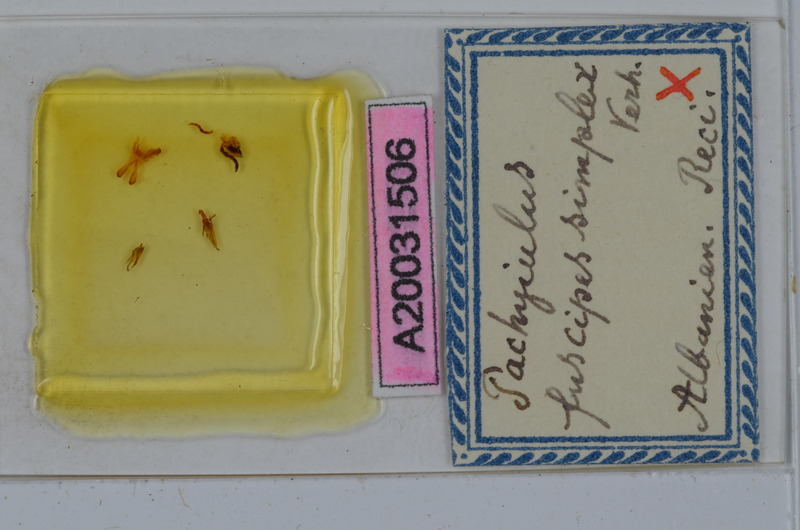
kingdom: Animalia
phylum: Arthropoda
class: Diplopoda
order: Julida
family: Julidae
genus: Acanthoiulus
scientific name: Acanthoiulus fuscipes
